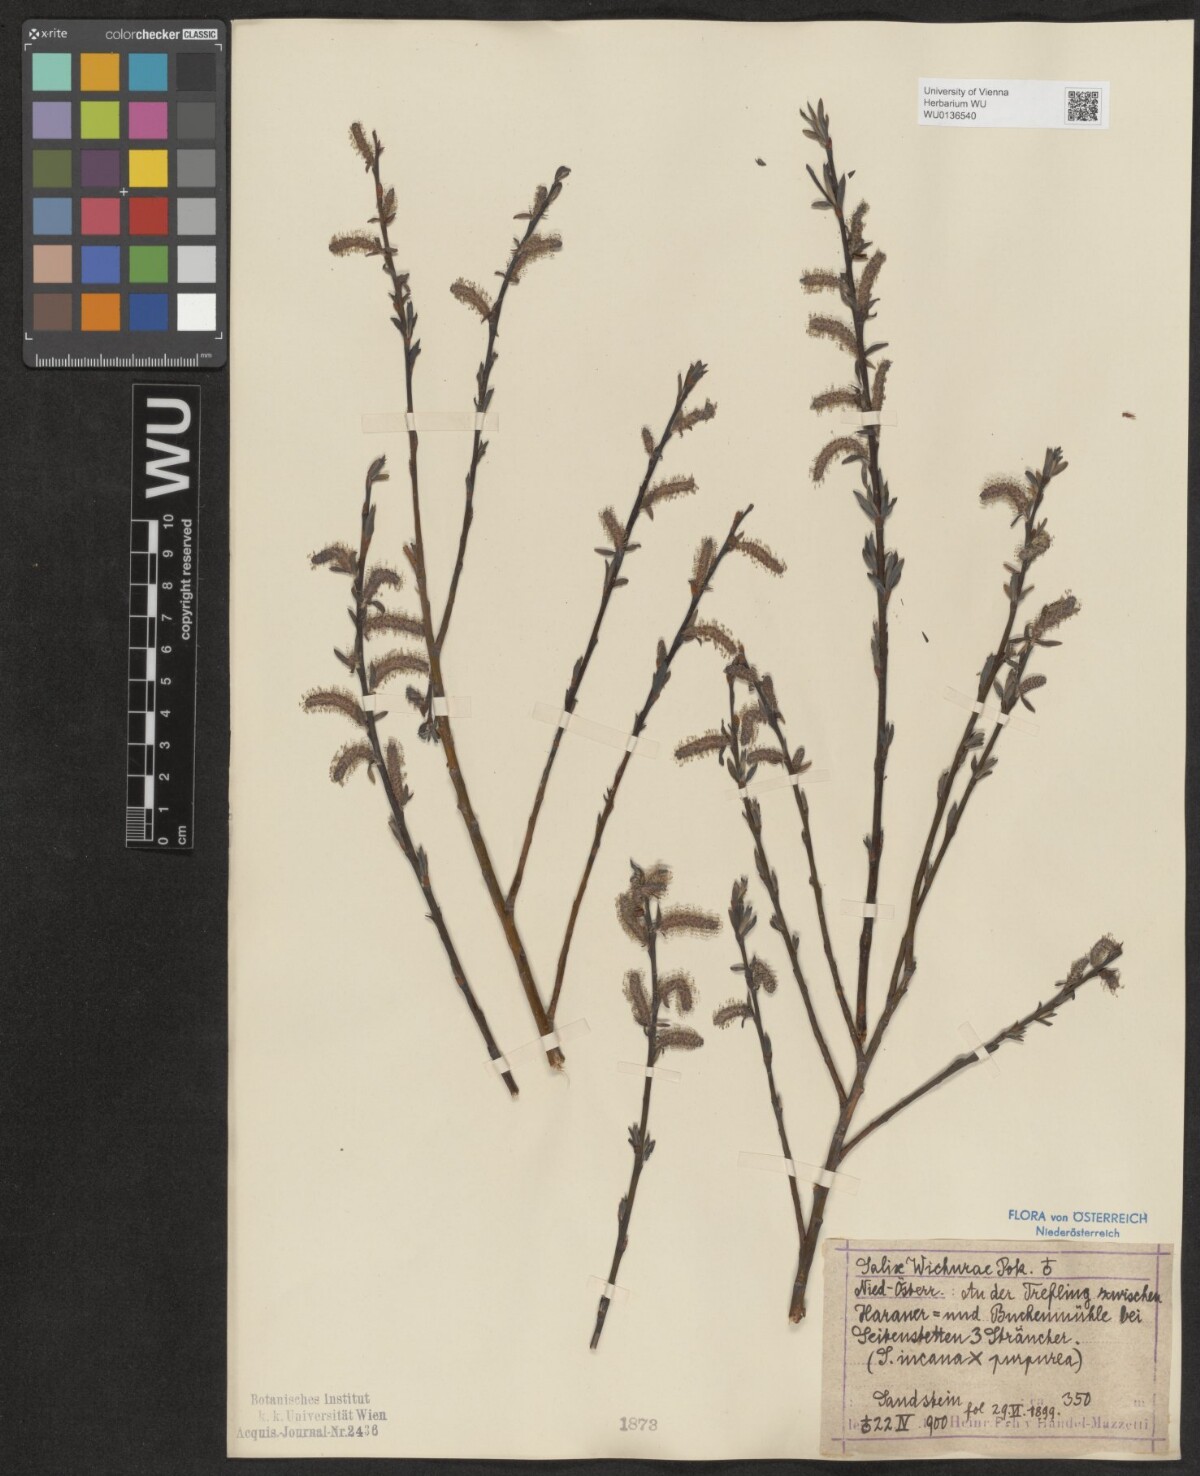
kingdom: Plantae
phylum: Tracheophyta
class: Magnoliopsida
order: Malpighiales
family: Salicaceae
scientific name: Salicaceae
